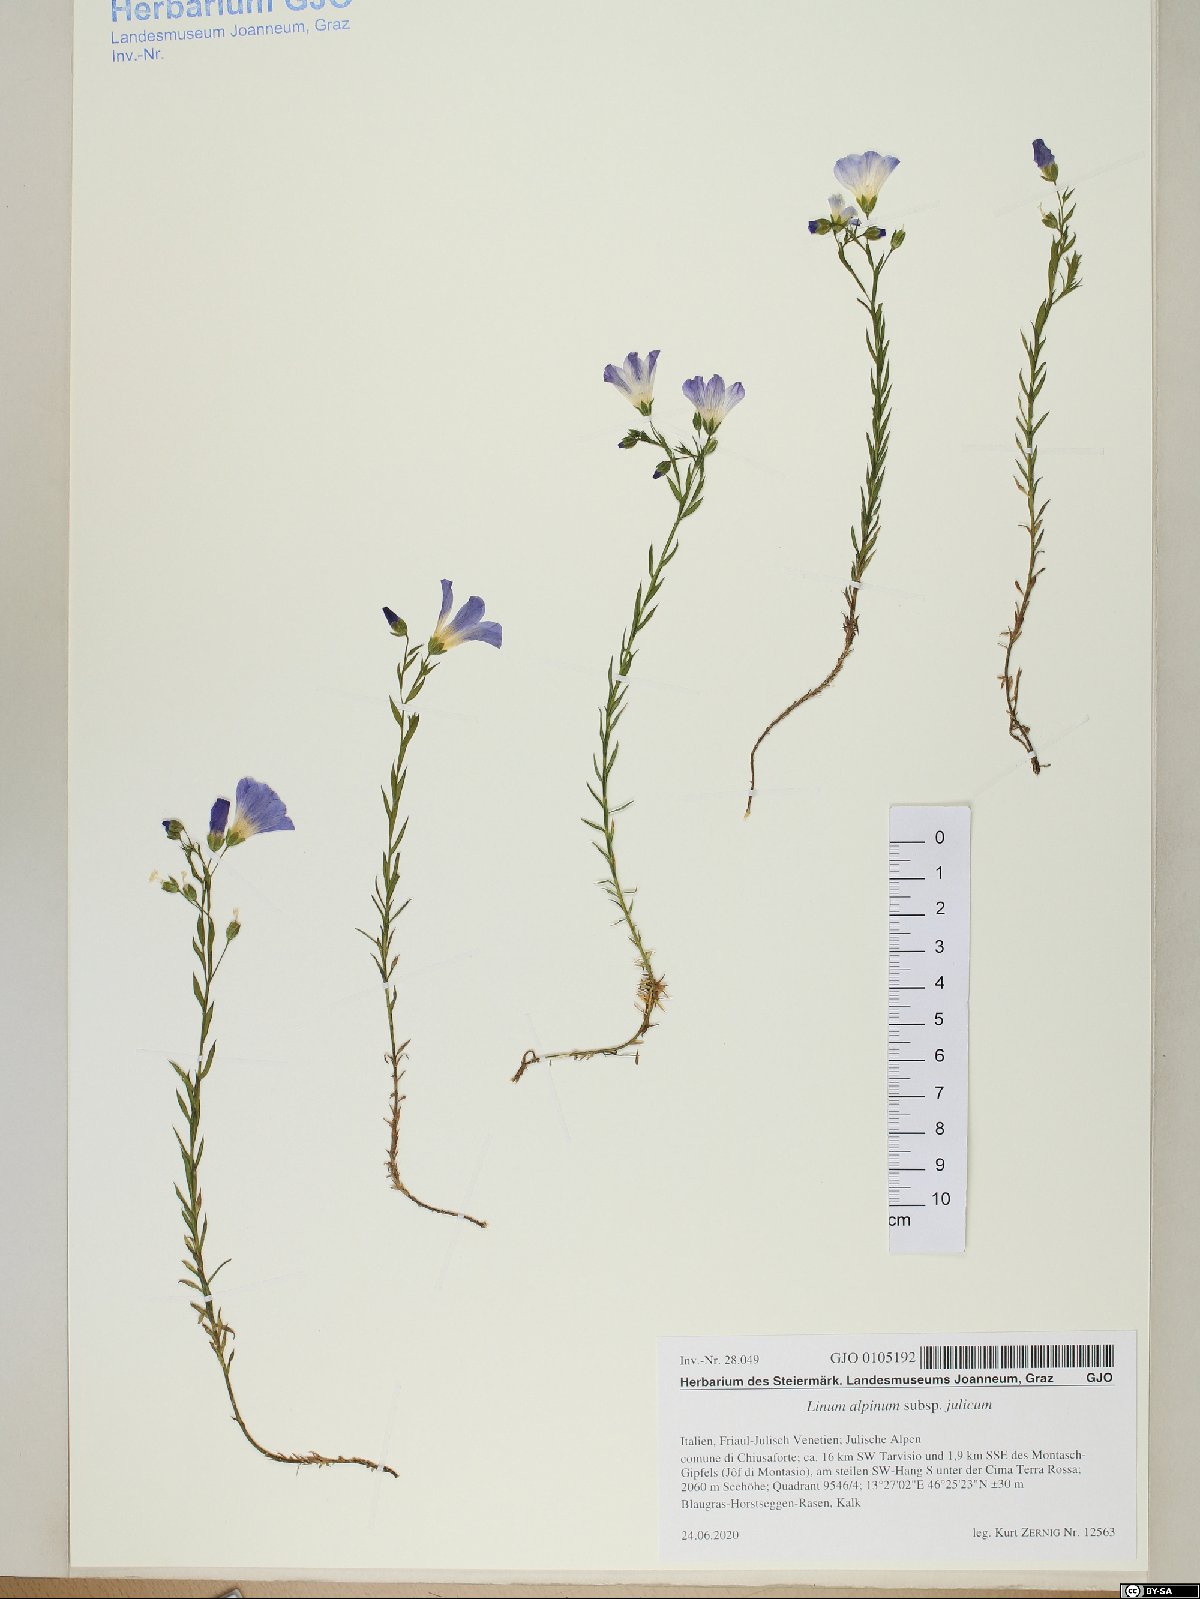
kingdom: Plantae
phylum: Tracheophyta
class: Magnoliopsida
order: Malpighiales
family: Linaceae
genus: Linum
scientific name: Linum alpinum
